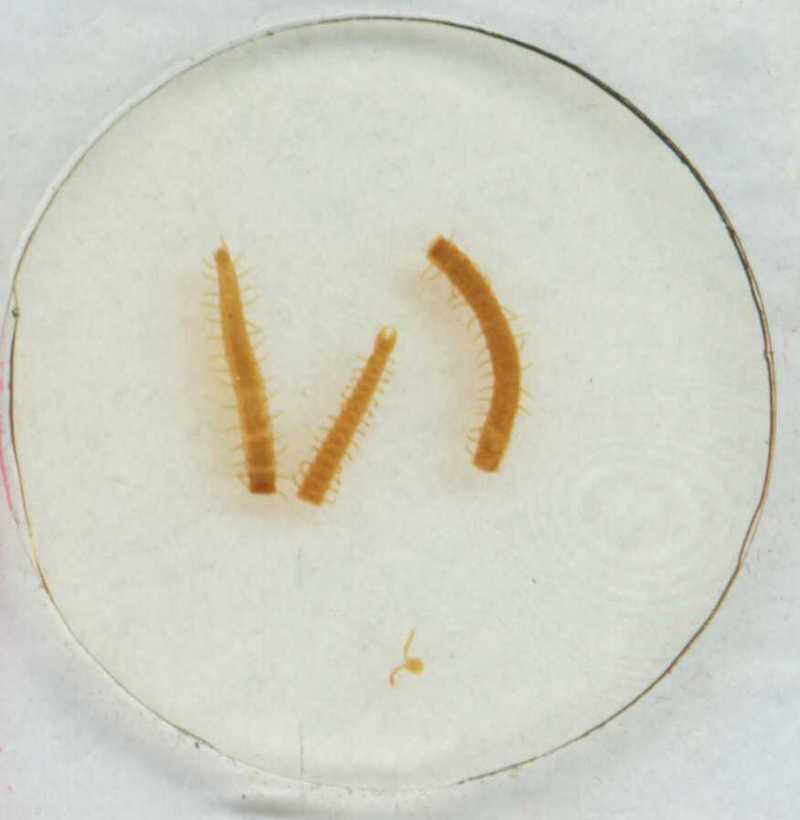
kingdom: Animalia
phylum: Arthropoda
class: Chilopoda
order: Geophilomorpha
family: Geophilidae
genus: Geophilus
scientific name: Geophilus lemuricus
